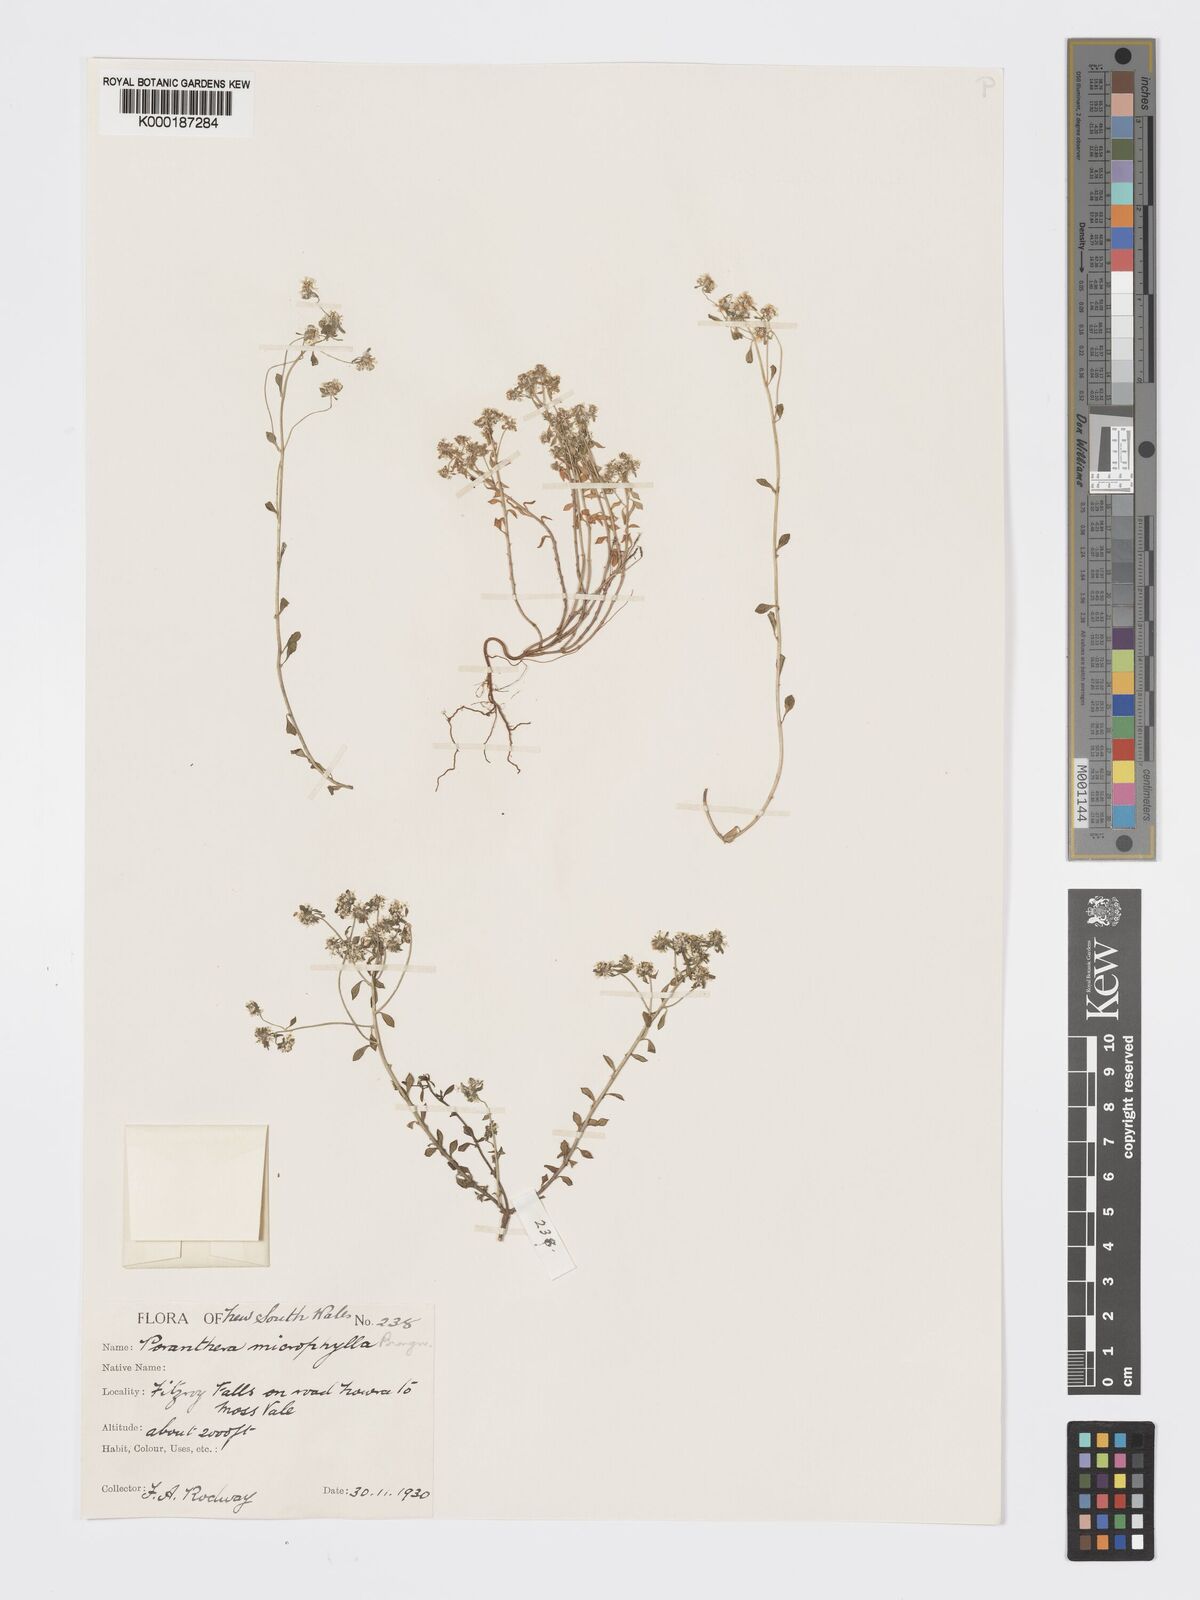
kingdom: Plantae
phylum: Tracheophyta
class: Magnoliopsida
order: Malpighiales
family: Phyllanthaceae
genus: Poranthera
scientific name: Poranthera microphylla
